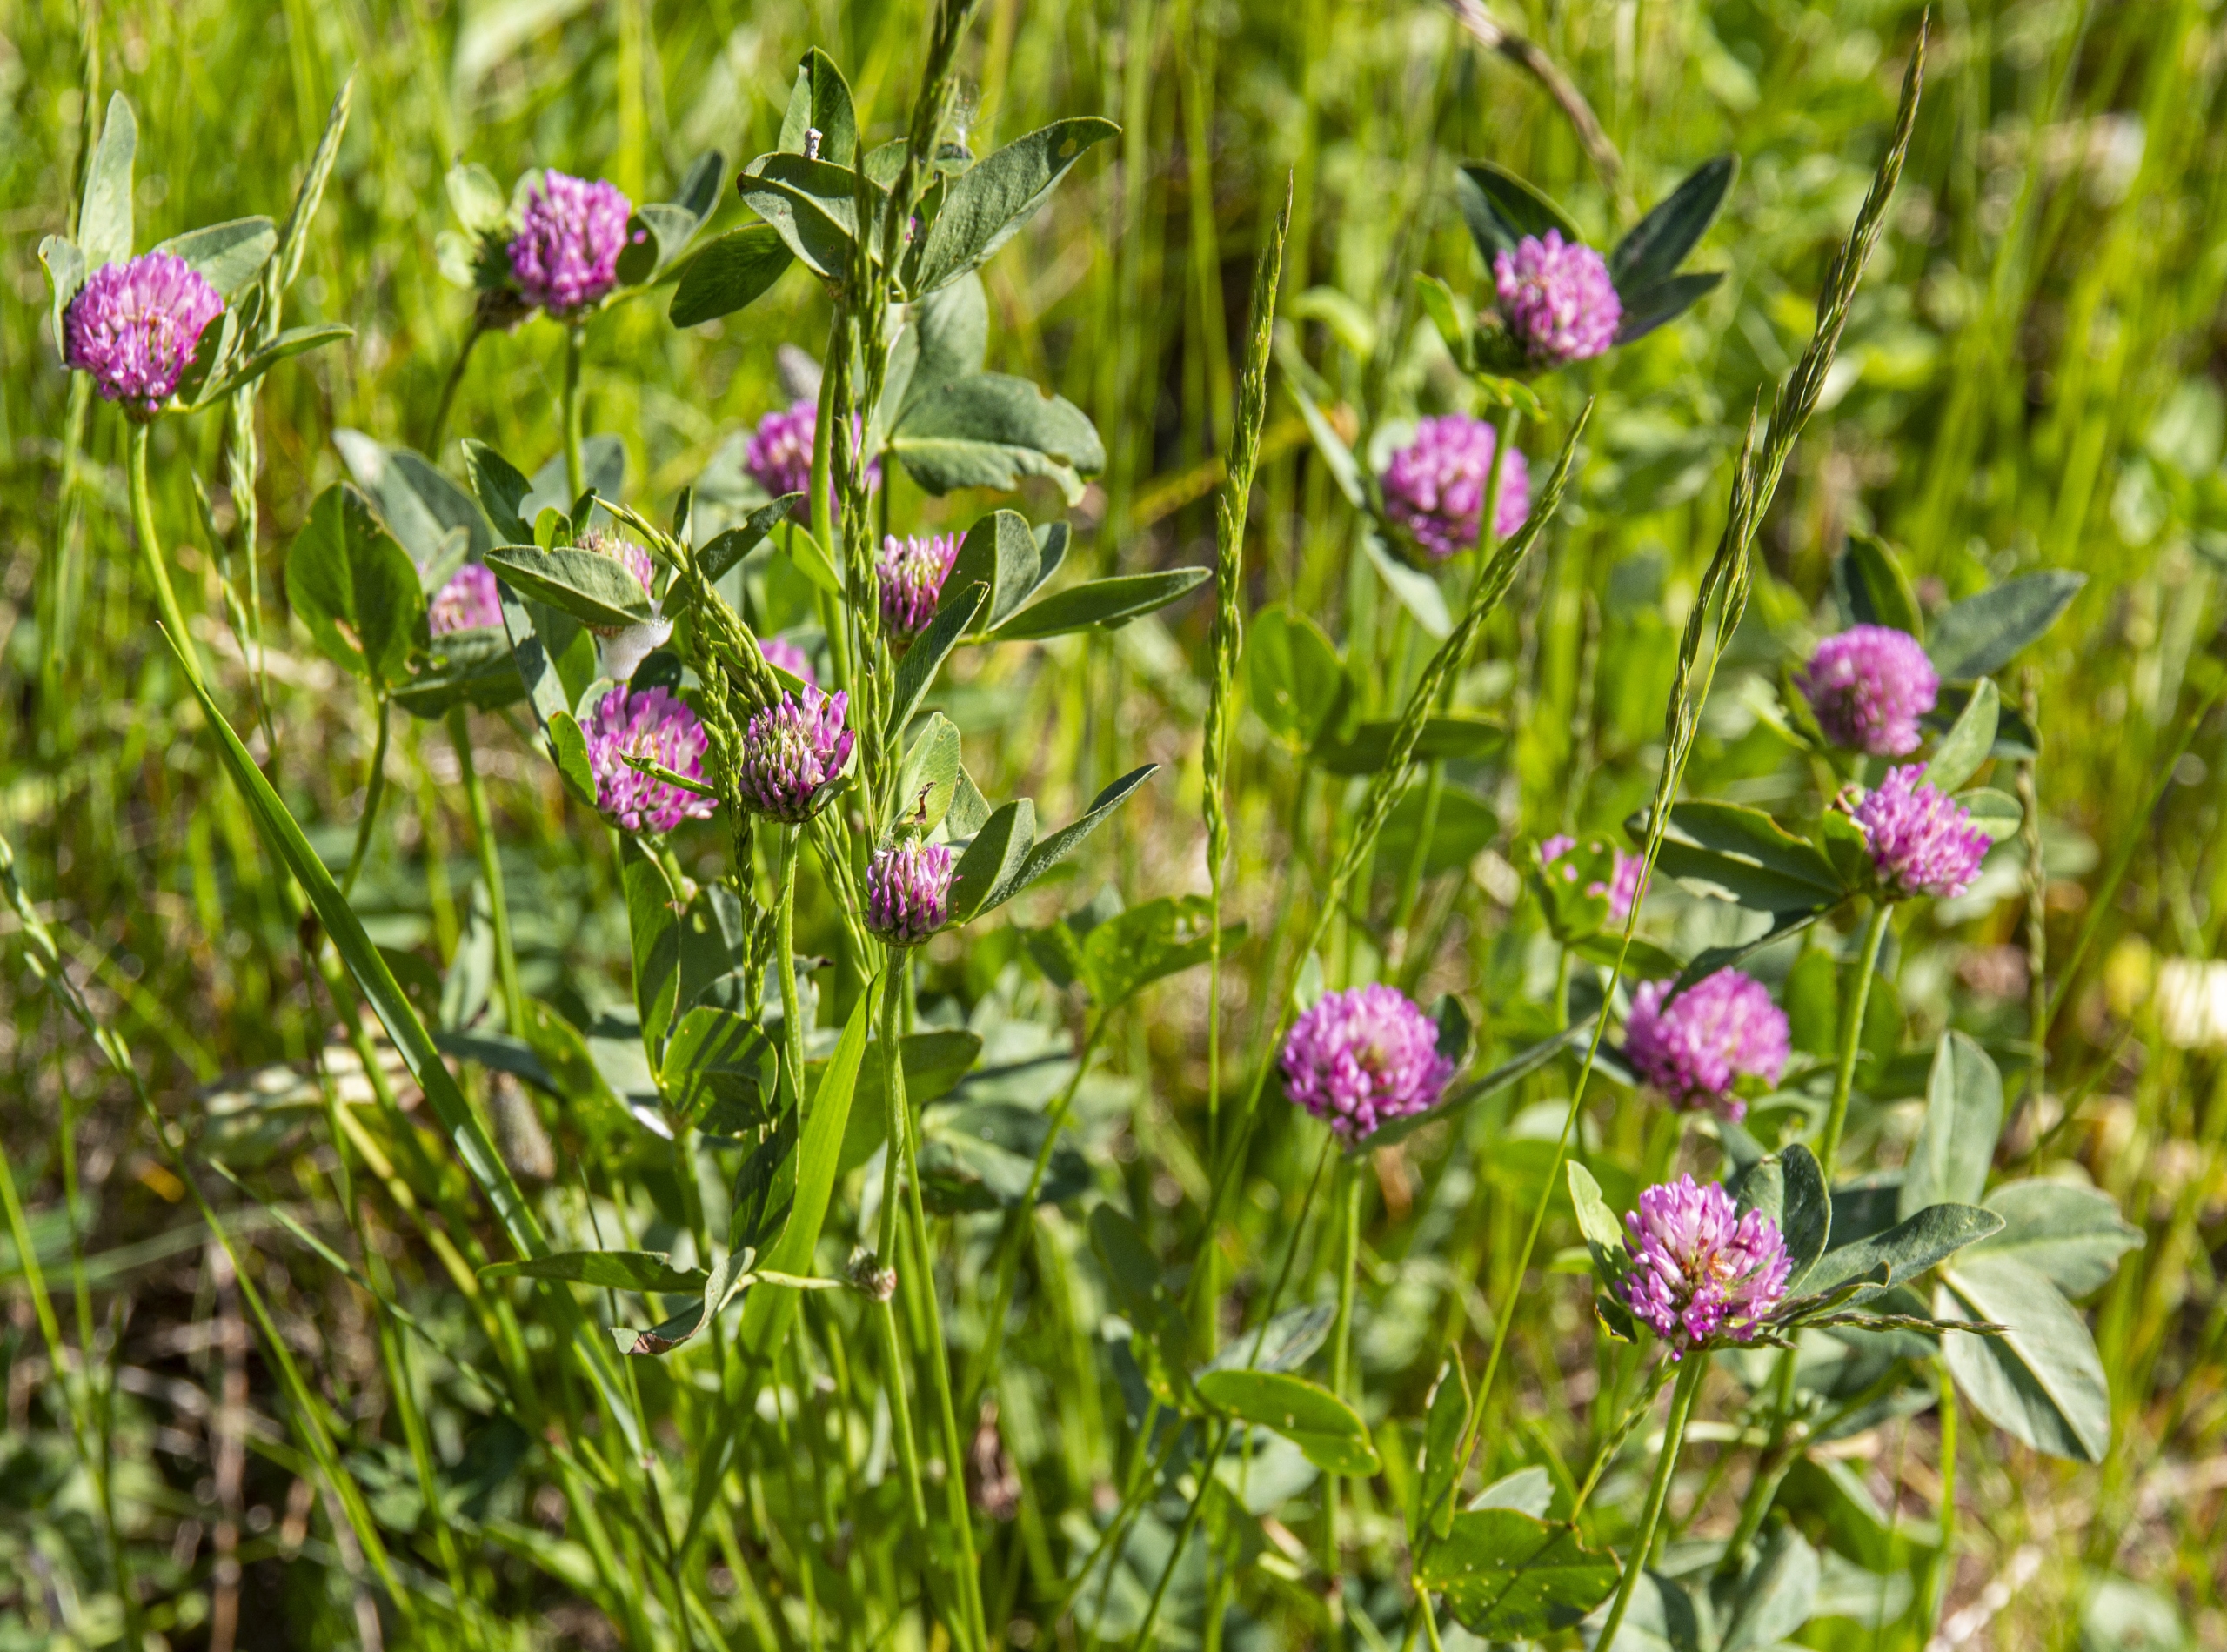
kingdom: Plantae
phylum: Tracheophyta
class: Magnoliopsida
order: Fabales
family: Fabaceae
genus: Trifolium
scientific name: Trifolium pratense
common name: Rød-kløver
